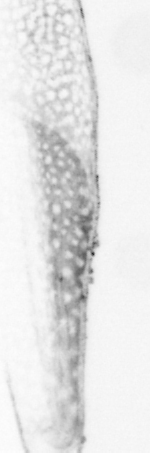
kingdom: Animalia
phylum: Chordata
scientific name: Chordata
